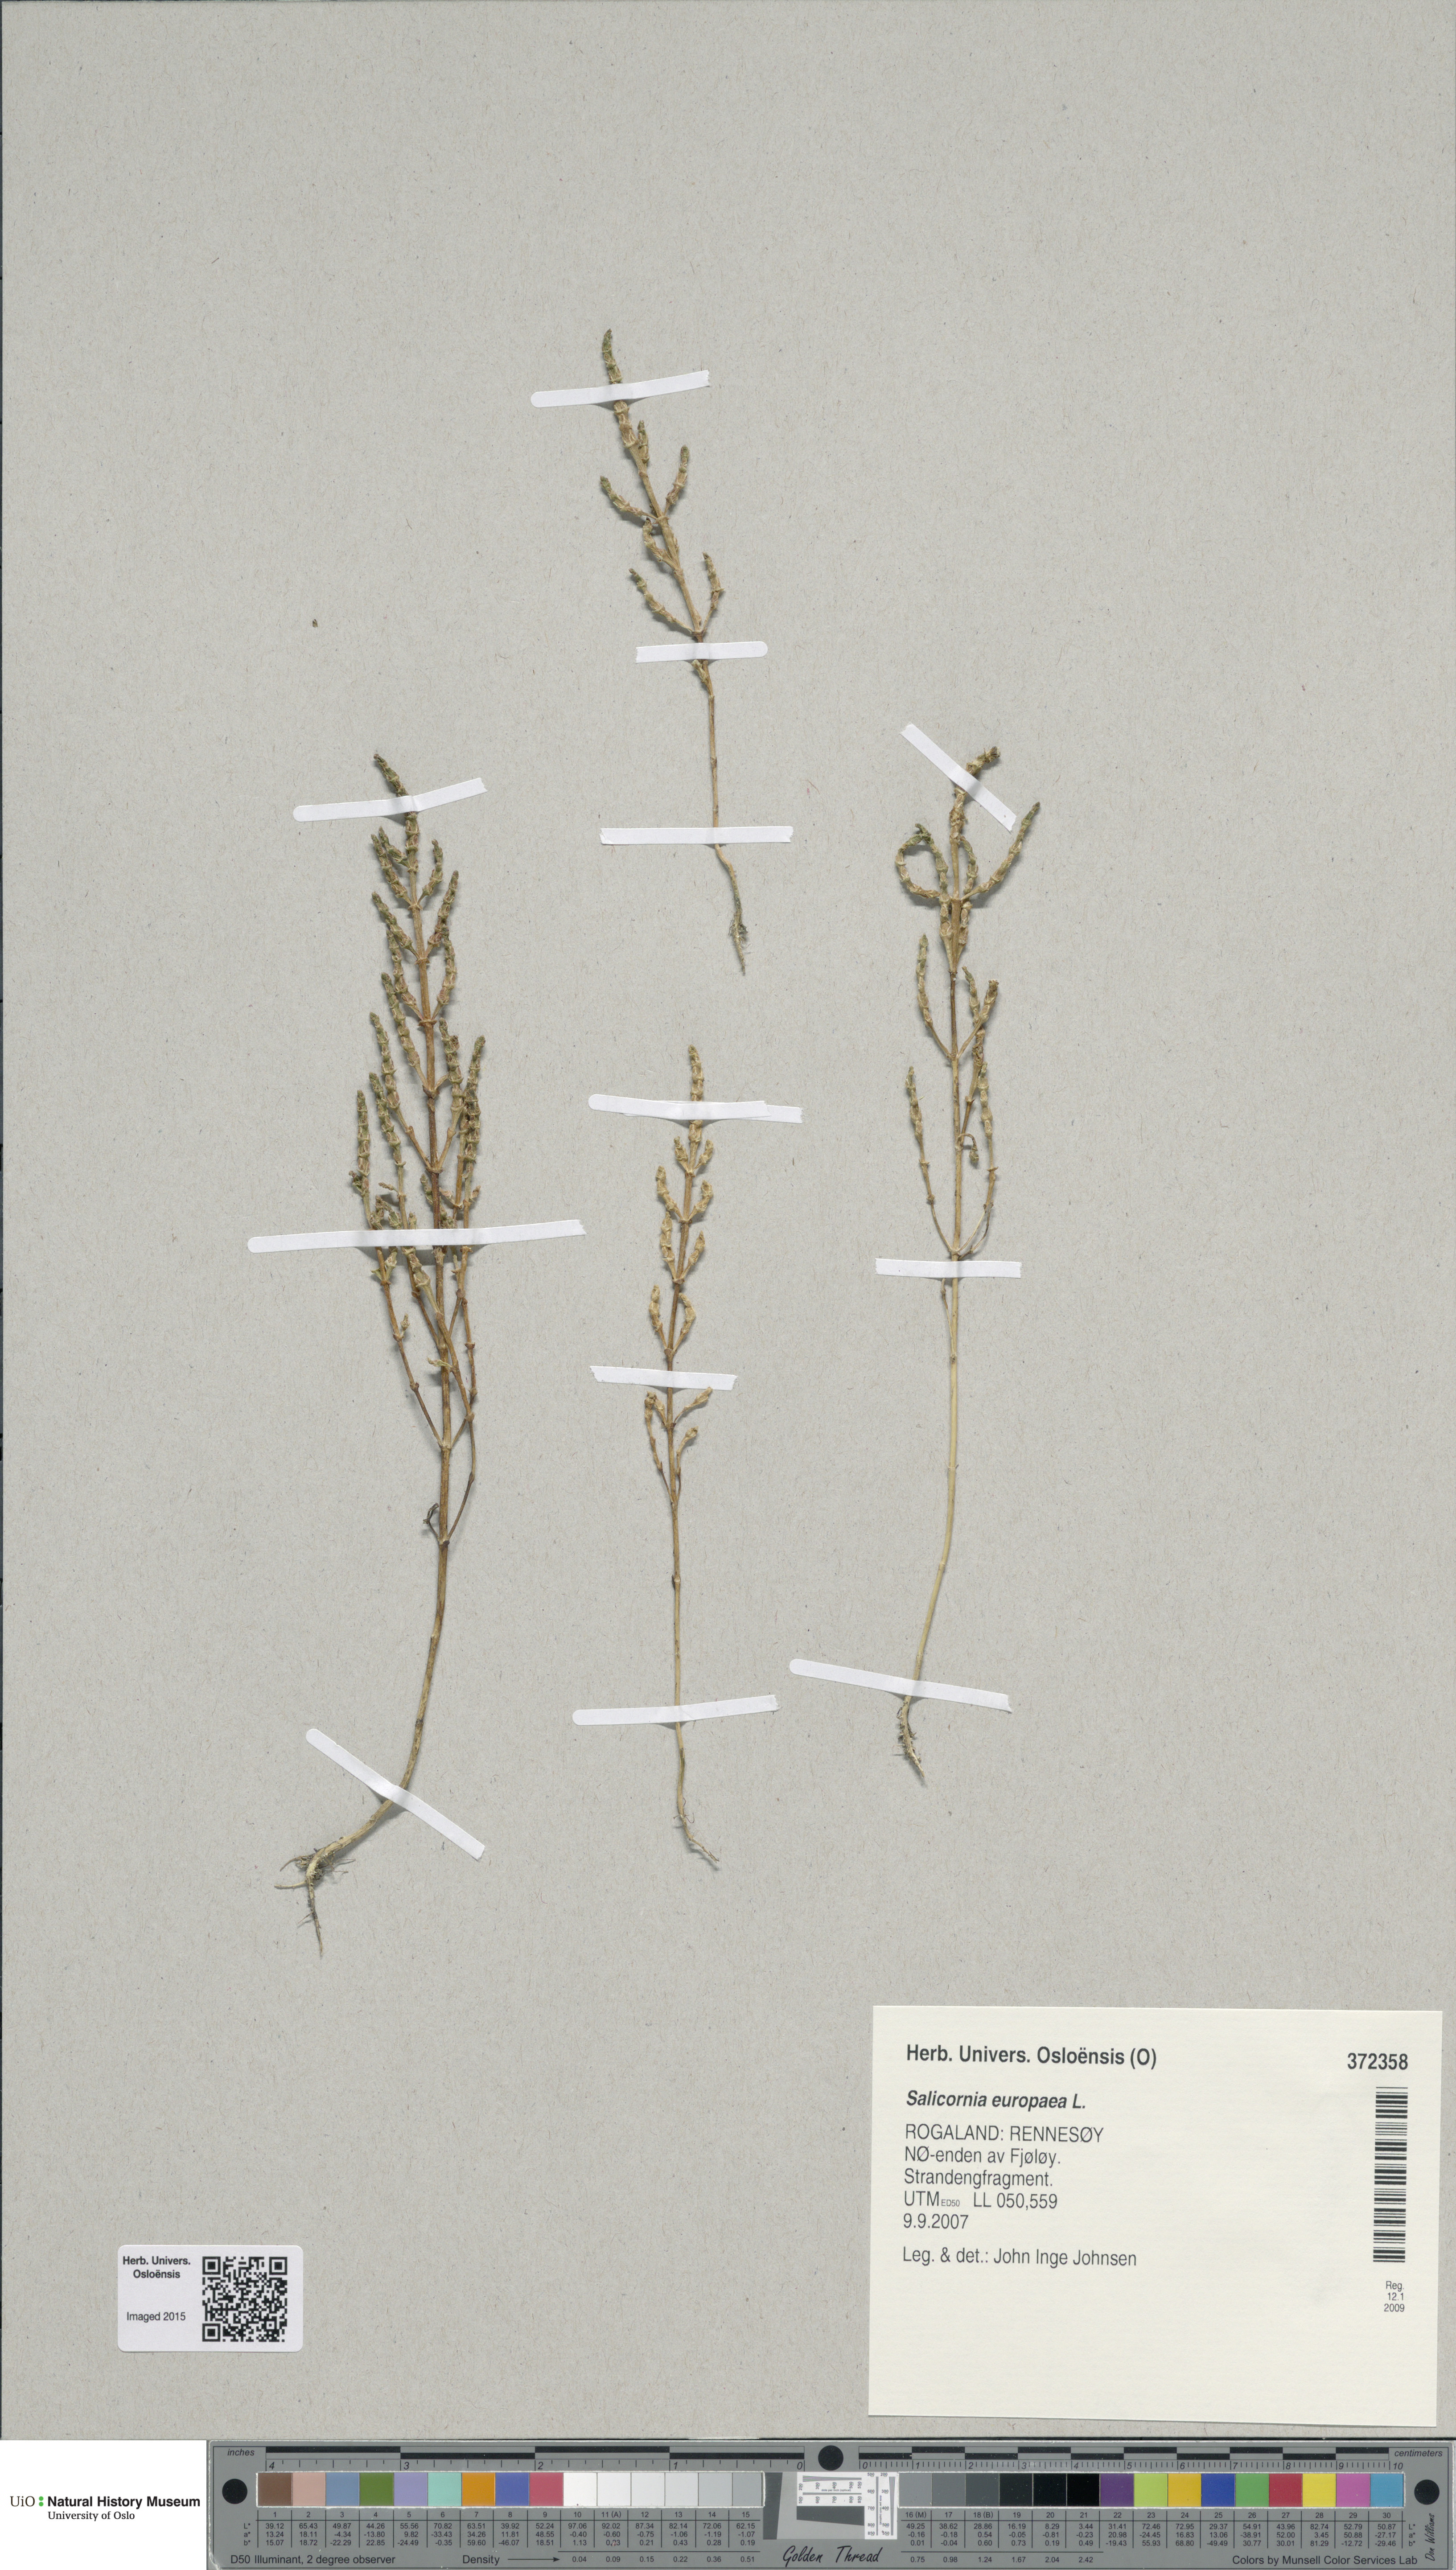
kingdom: Plantae
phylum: Tracheophyta
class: Magnoliopsida
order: Caryophyllales
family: Amaranthaceae
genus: Salicornia
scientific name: Salicornia europaea
